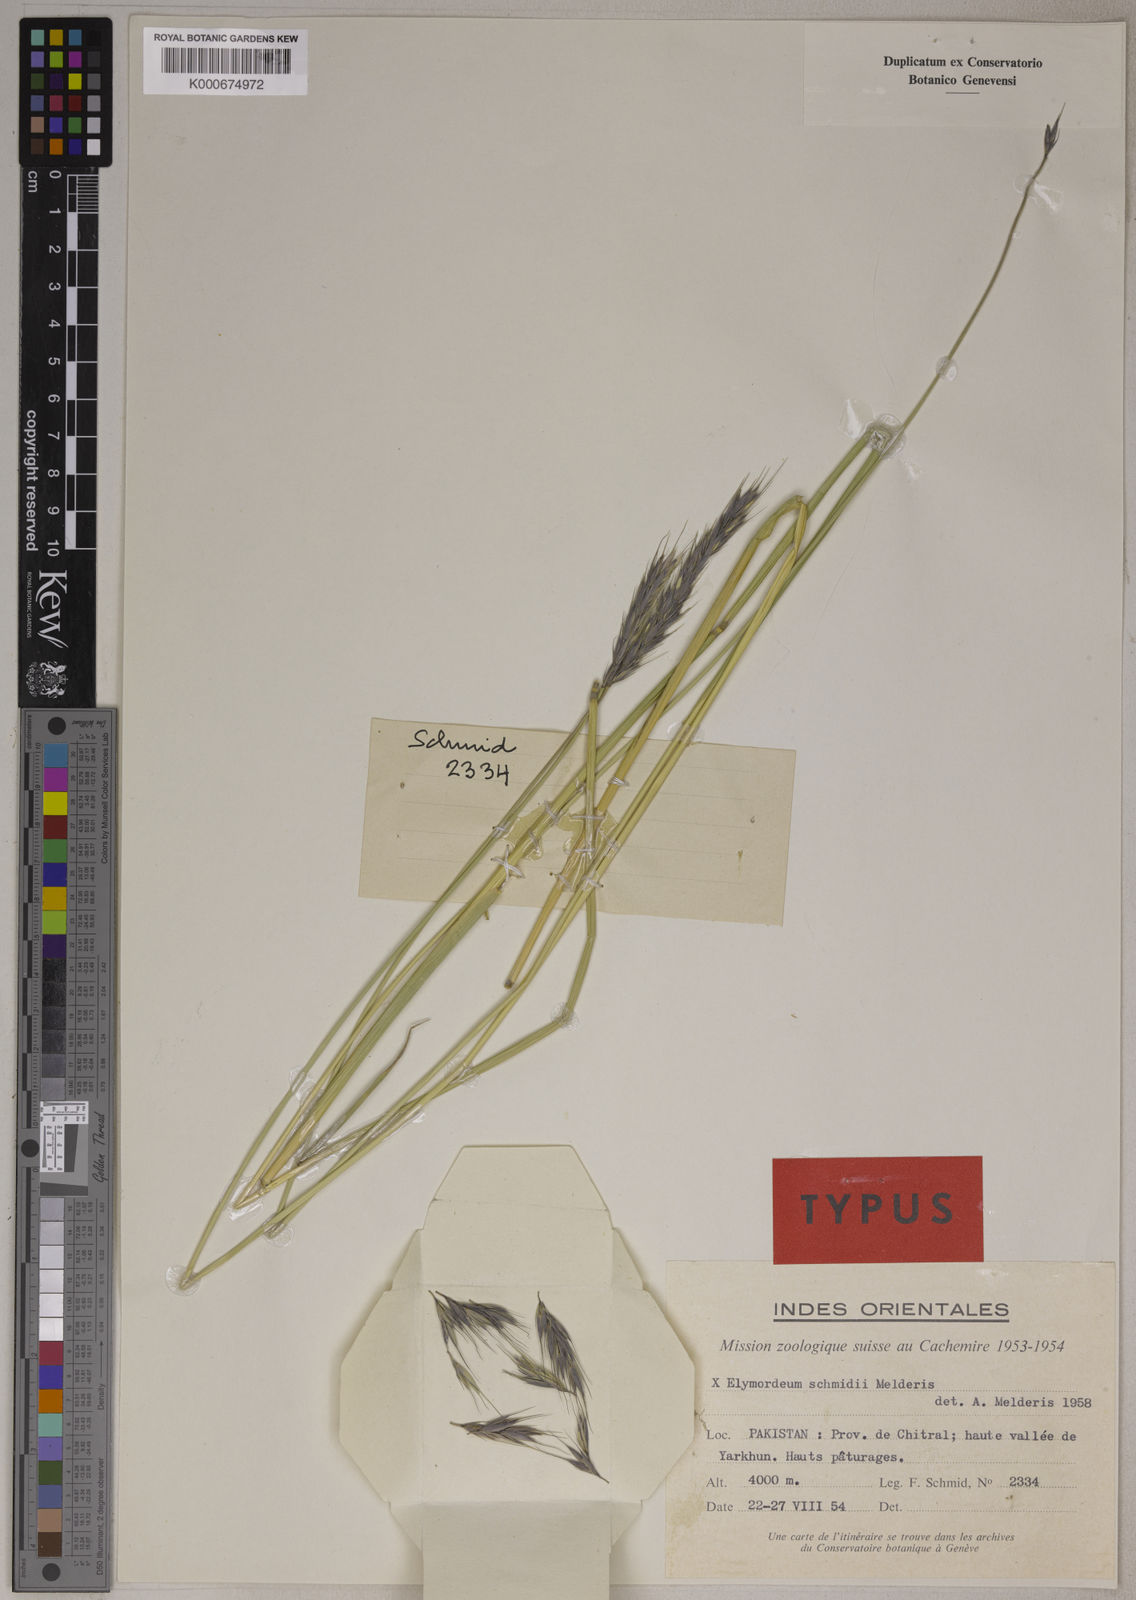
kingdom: Plantae
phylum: Tracheophyta
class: Liliopsida
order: Poales
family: Poaceae
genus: Elymus
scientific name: Elymus
